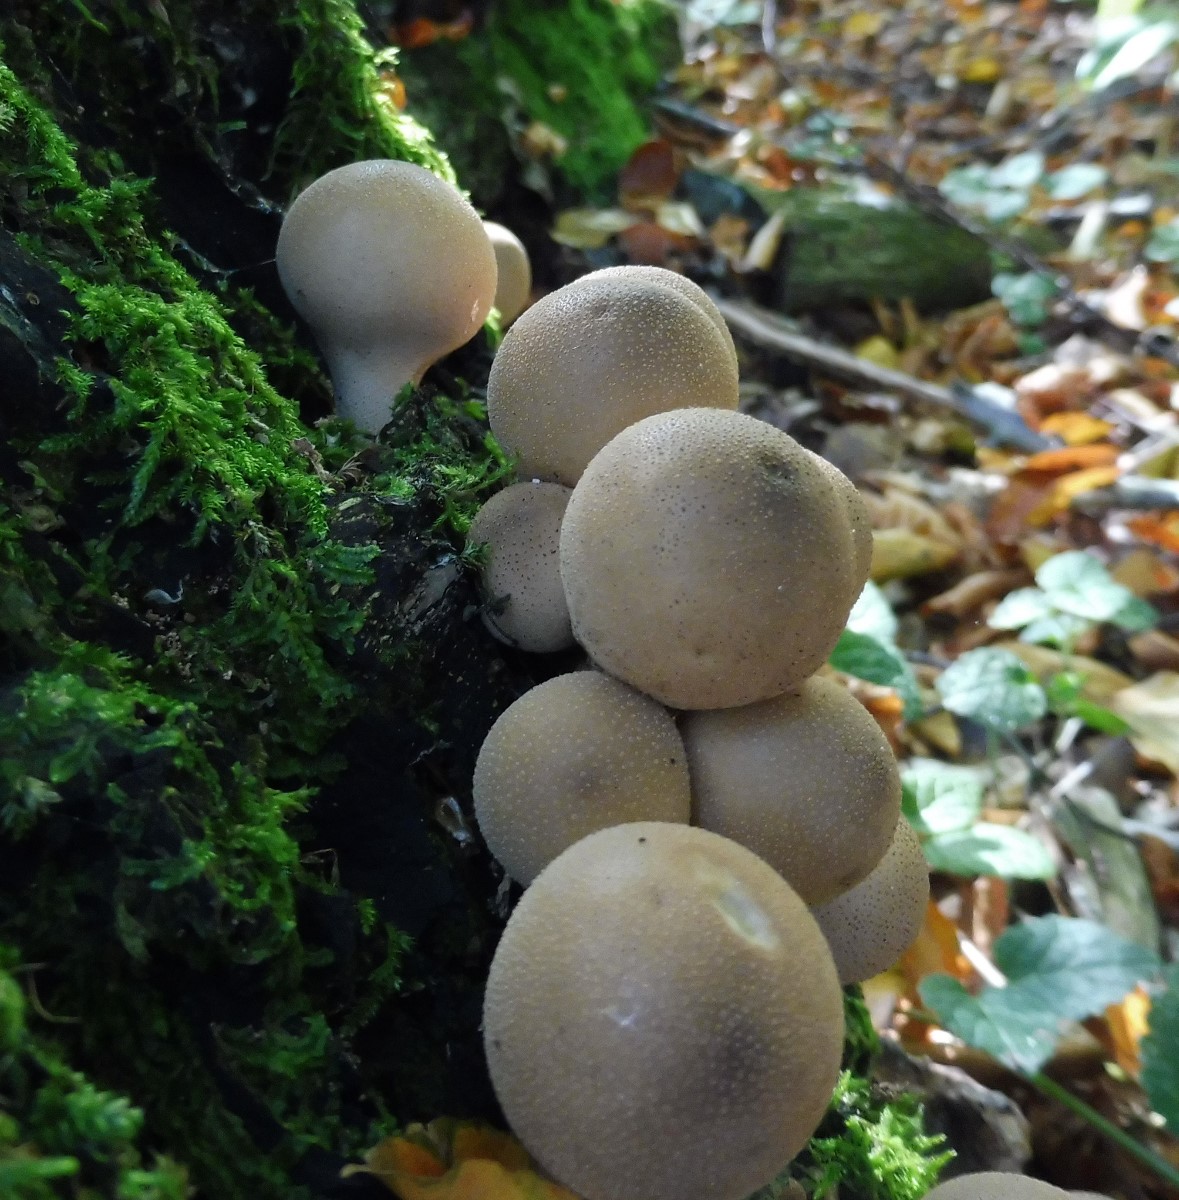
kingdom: Fungi
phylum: Basidiomycota
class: Agaricomycetes
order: Agaricales
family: Lycoperdaceae
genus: Apioperdon
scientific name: Apioperdon pyriforme
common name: pære-støvbold
